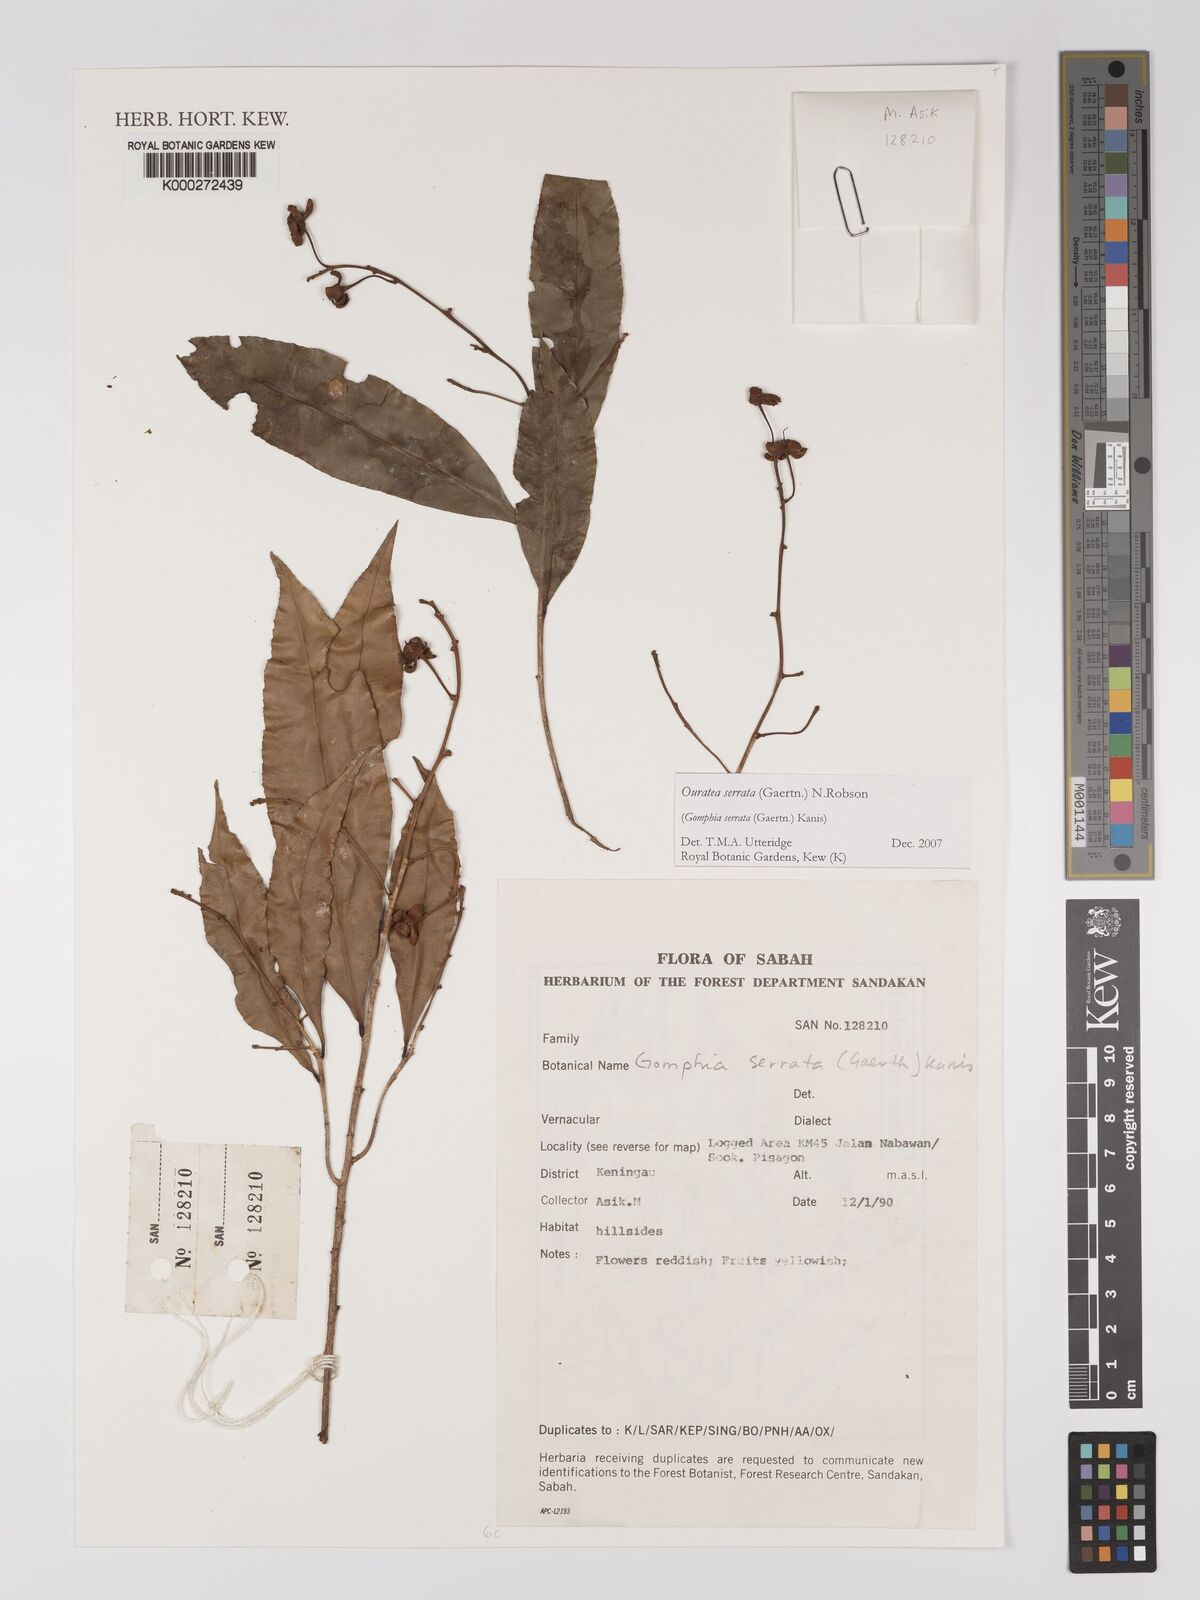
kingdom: Plantae
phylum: Tracheophyta
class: Magnoliopsida
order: Malpighiales
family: Ochnaceae
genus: Gomphia
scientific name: Gomphia serrata
